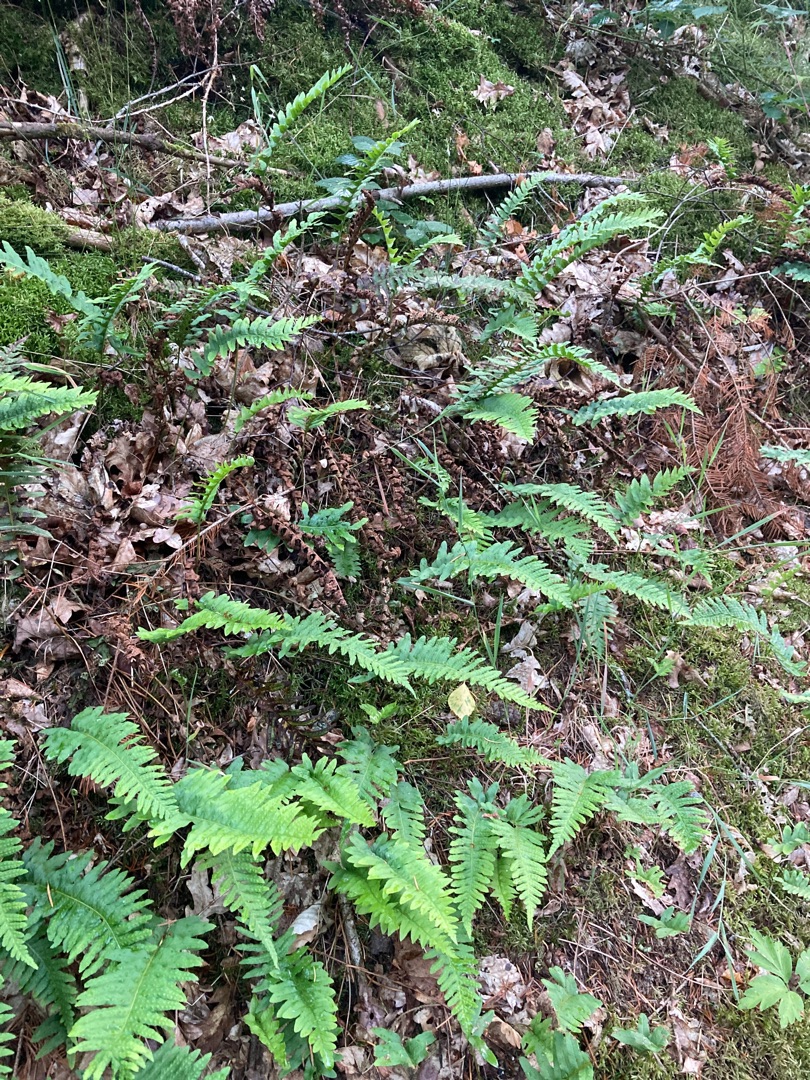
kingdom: Plantae
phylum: Tracheophyta
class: Polypodiopsida
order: Polypodiales
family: Polypodiaceae
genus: Polypodium
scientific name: Polypodium vulgare
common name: Almindelig engelsød
